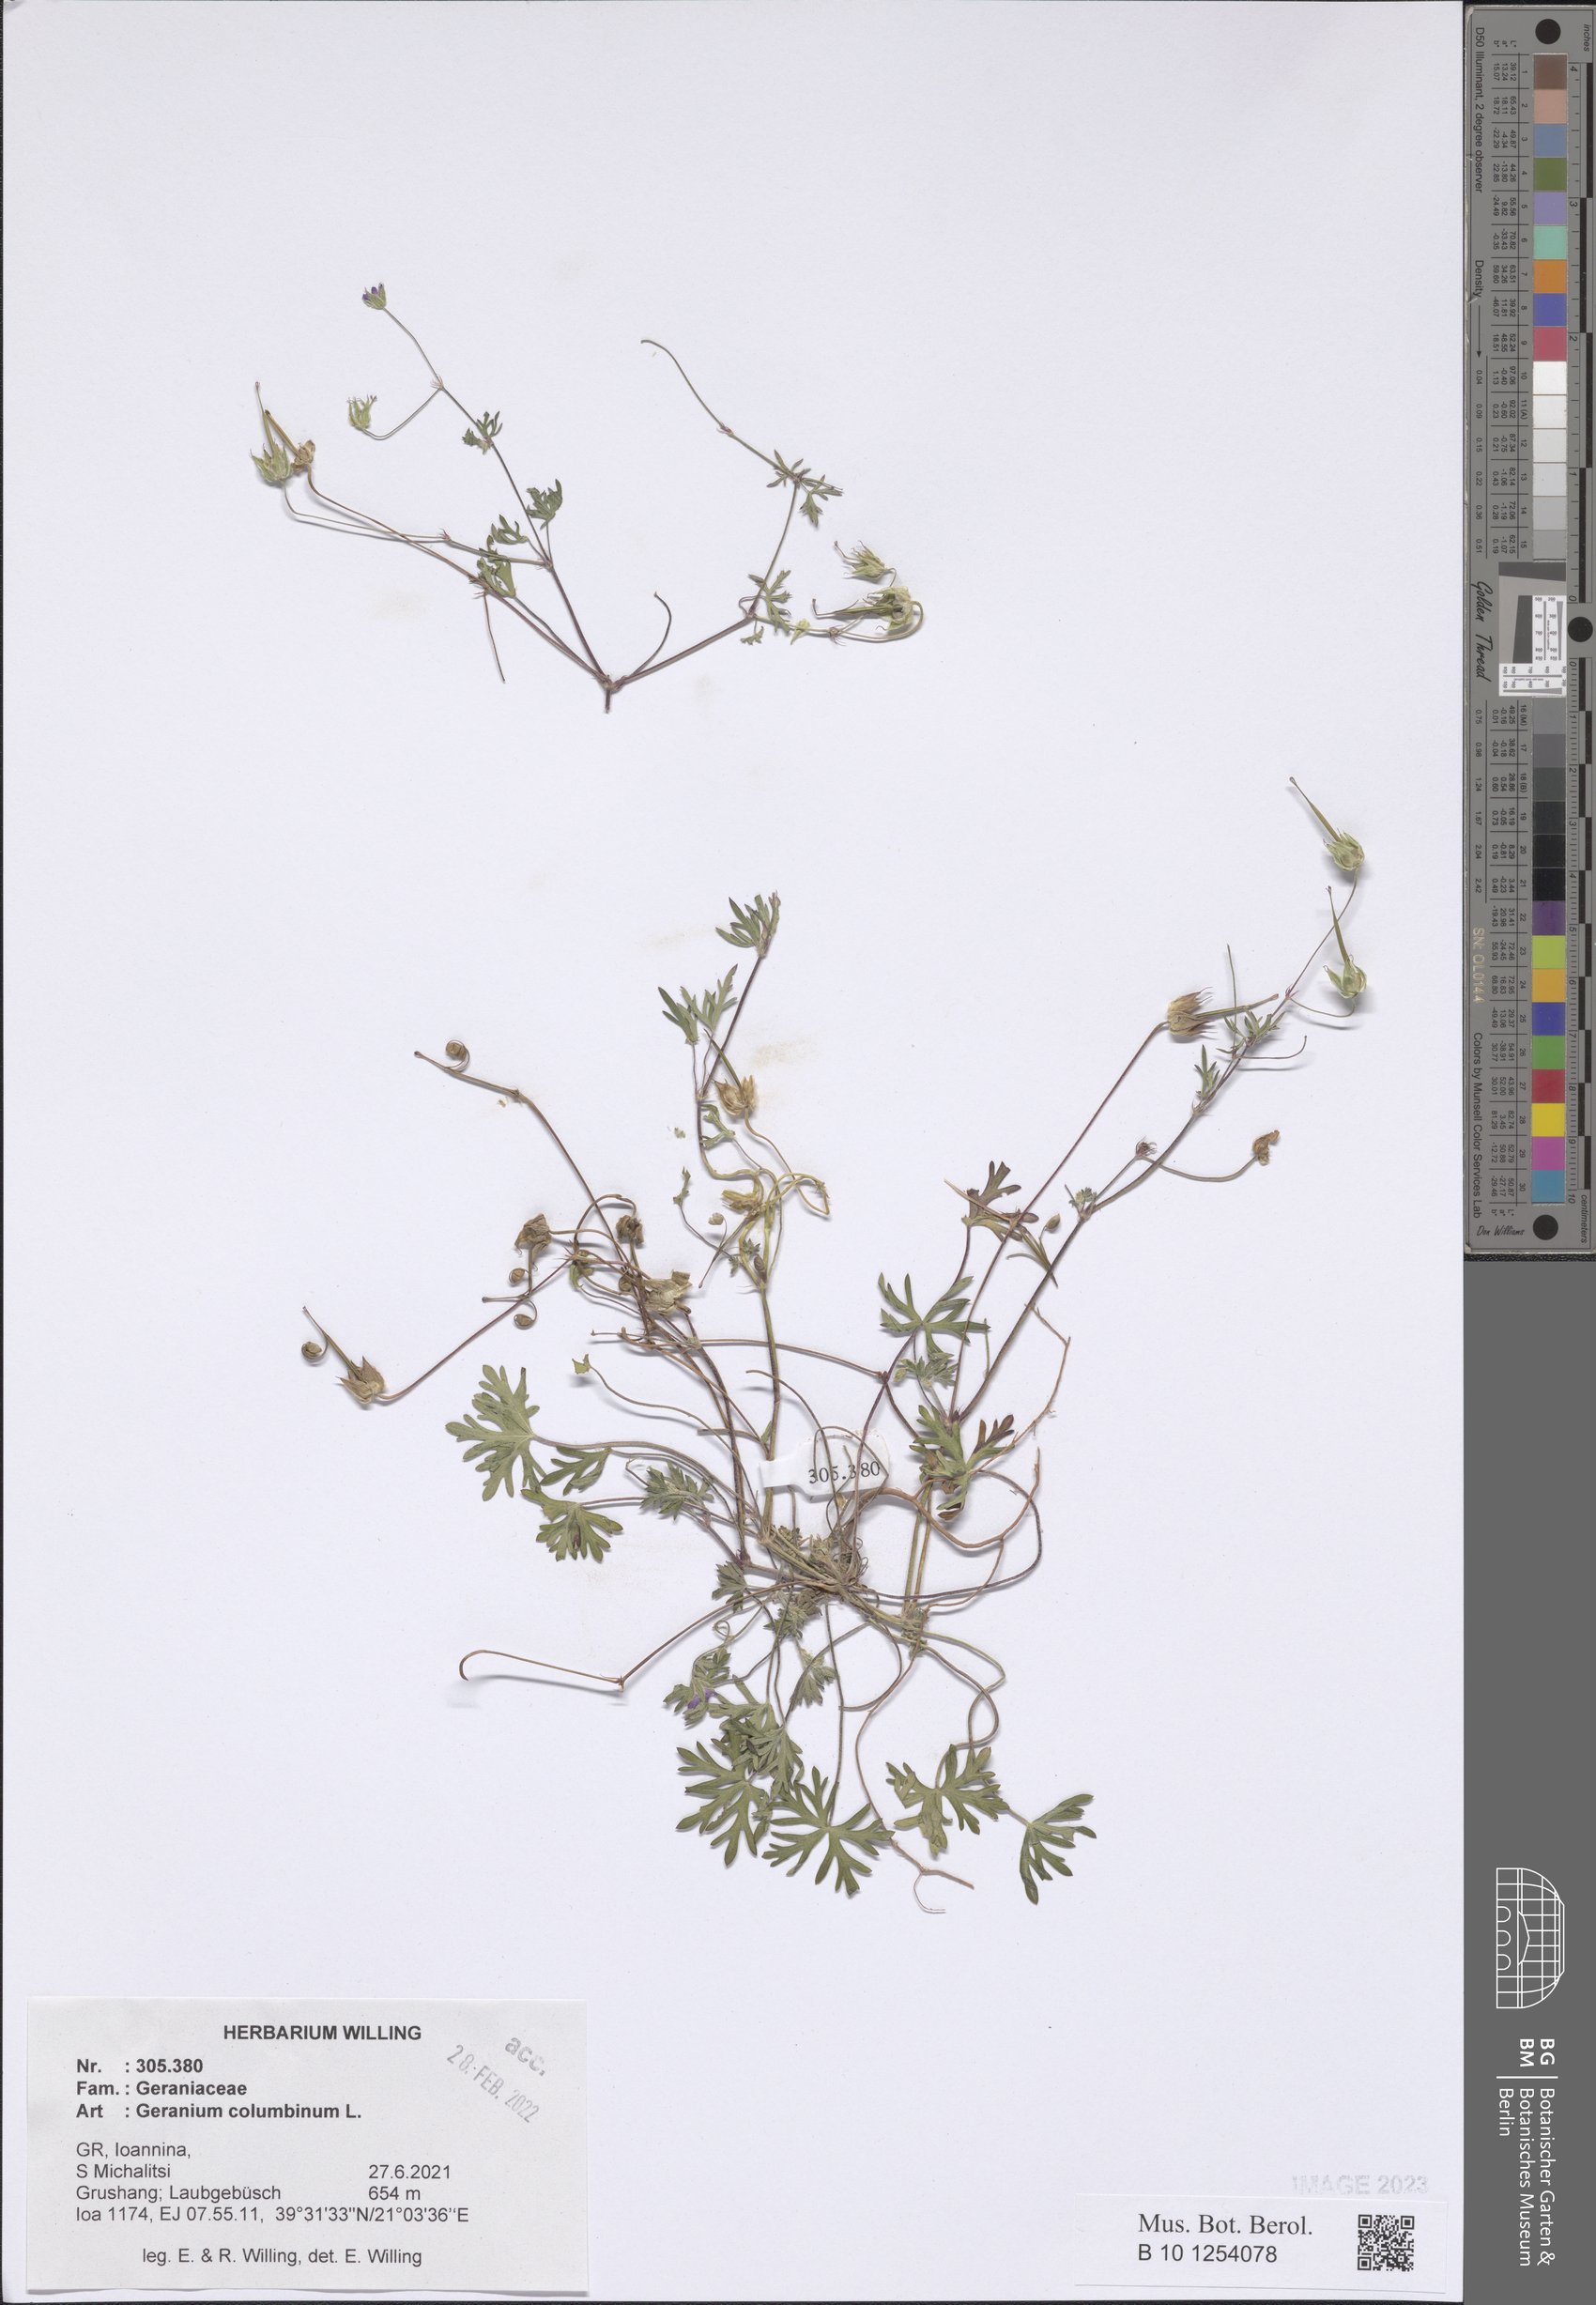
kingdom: Plantae
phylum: Tracheophyta
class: Magnoliopsida
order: Geraniales
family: Geraniaceae
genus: Geranium
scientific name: Geranium columbinum
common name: Long-stalked crane's-bill
